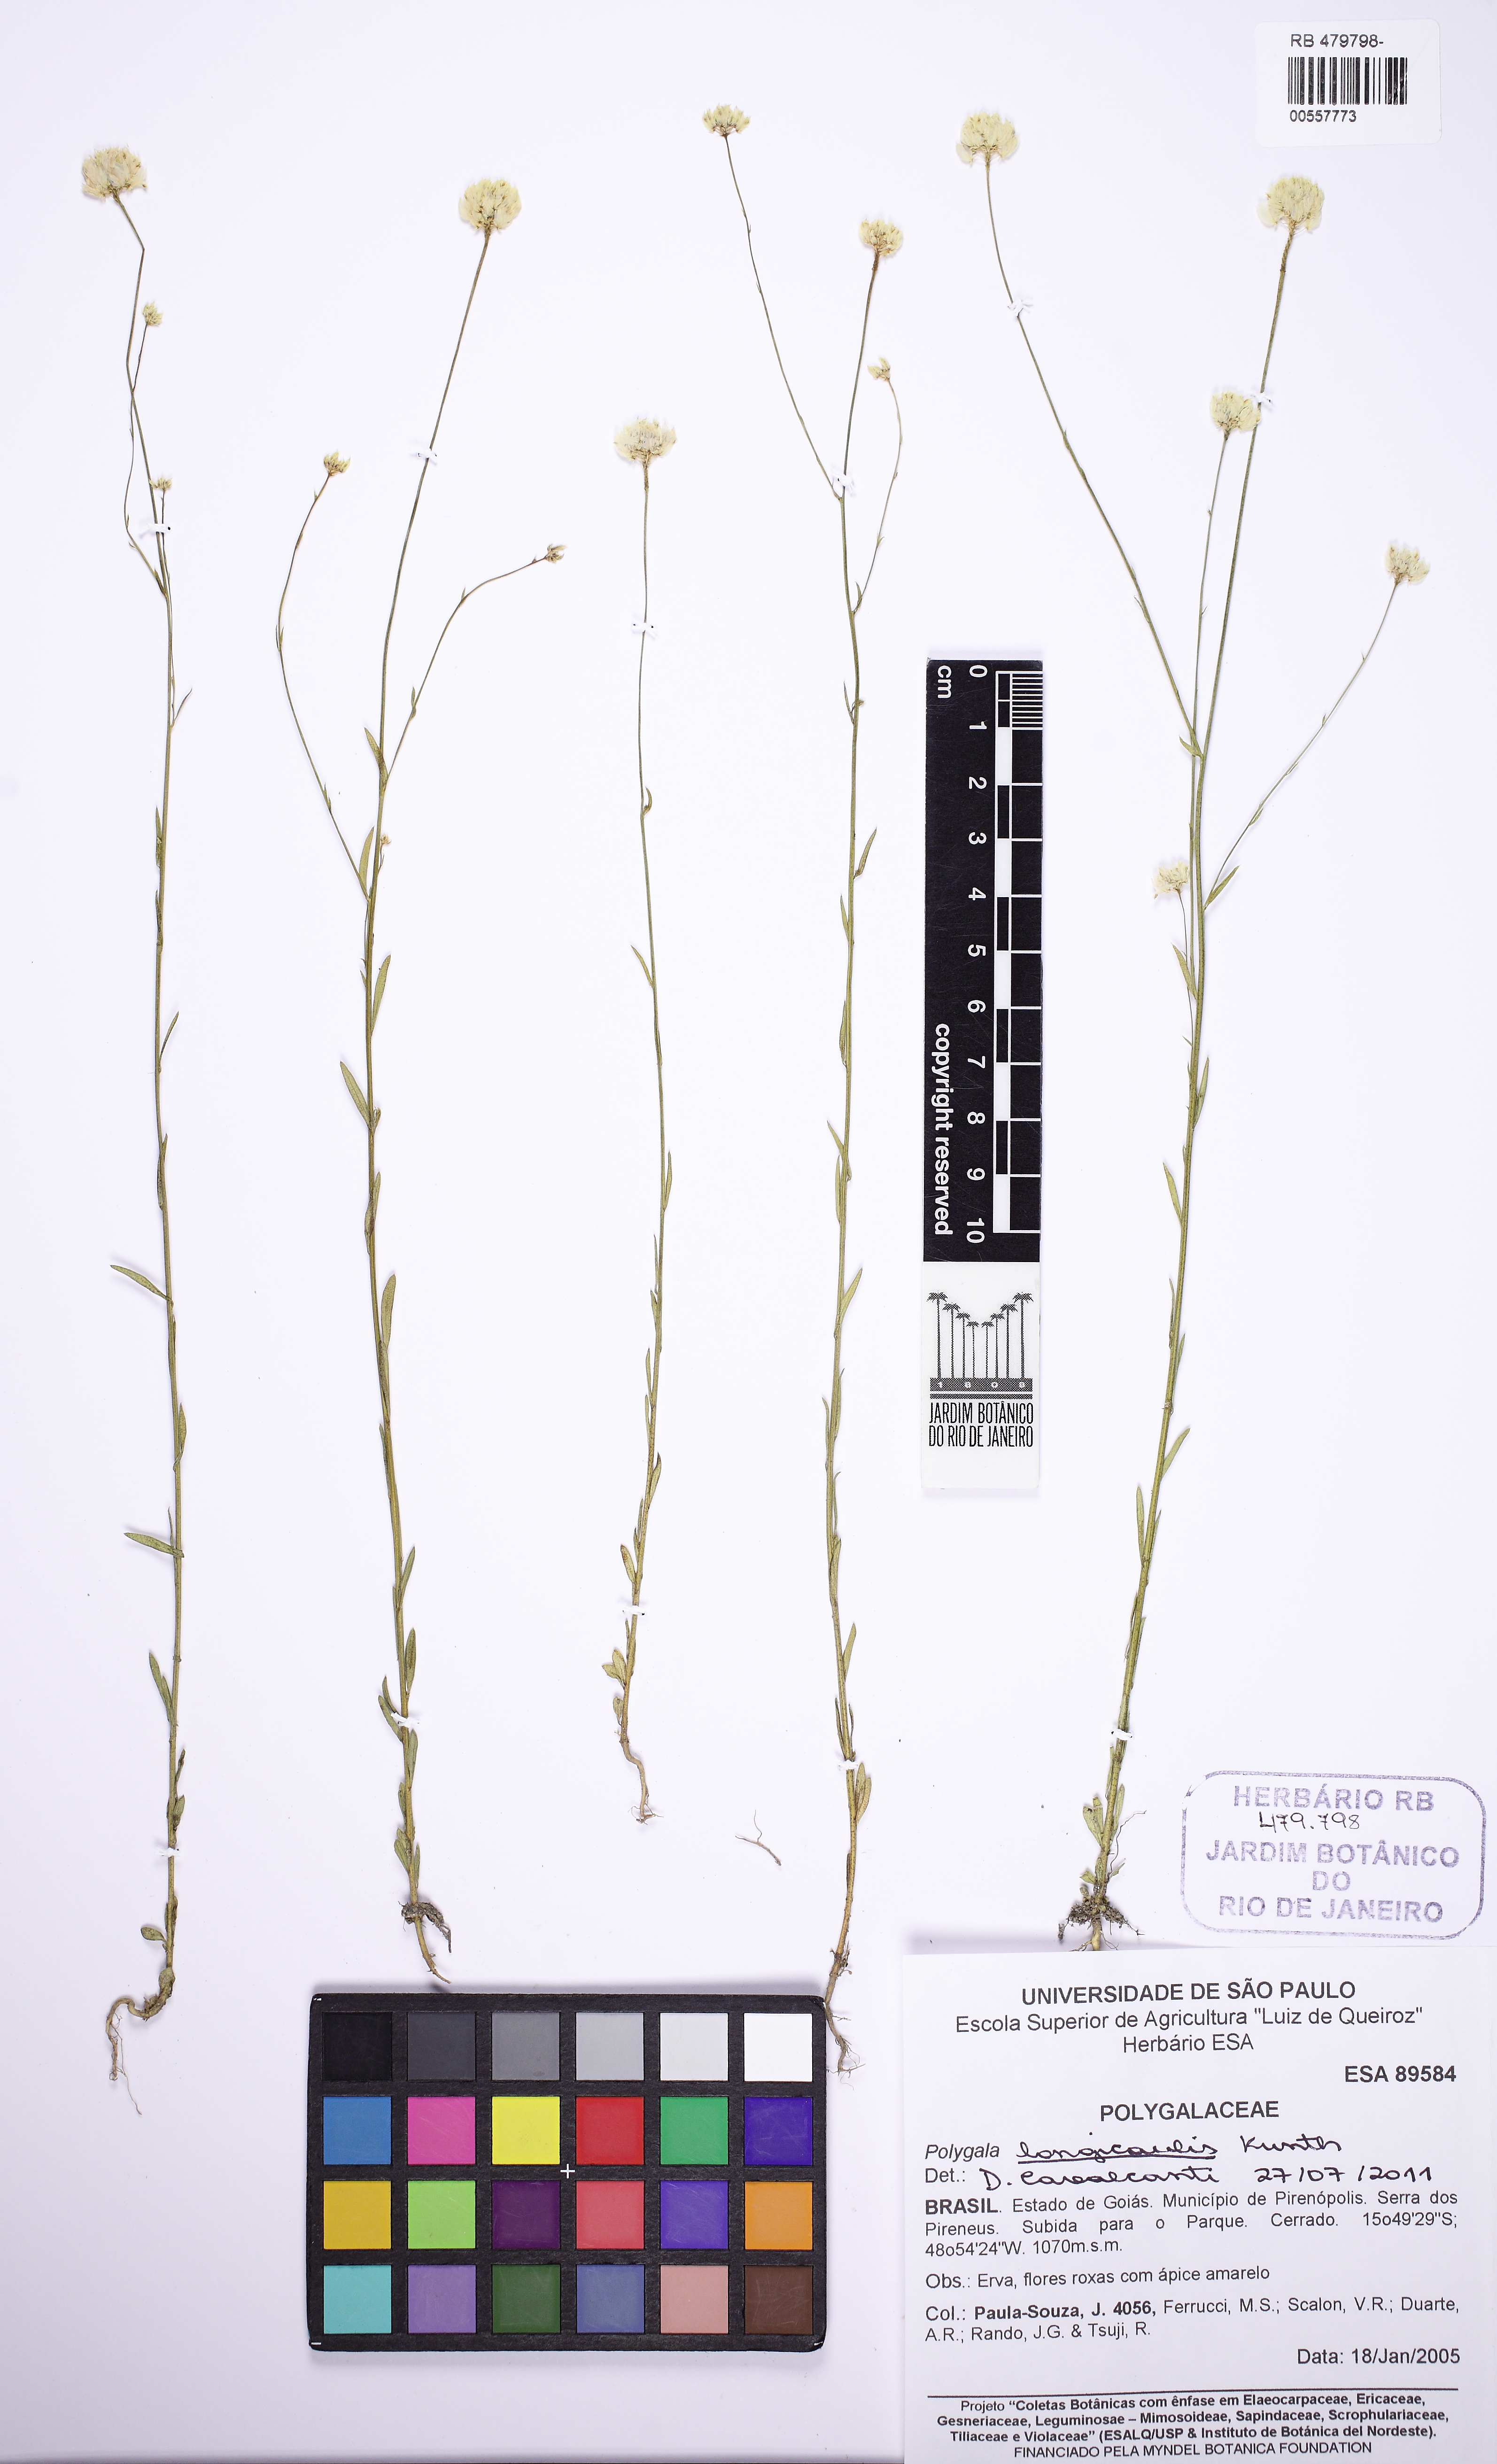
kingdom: Plantae
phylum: Tracheophyta
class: Magnoliopsida
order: Fabales
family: Polygalaceae
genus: Polygala
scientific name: Polygala longicaulis
